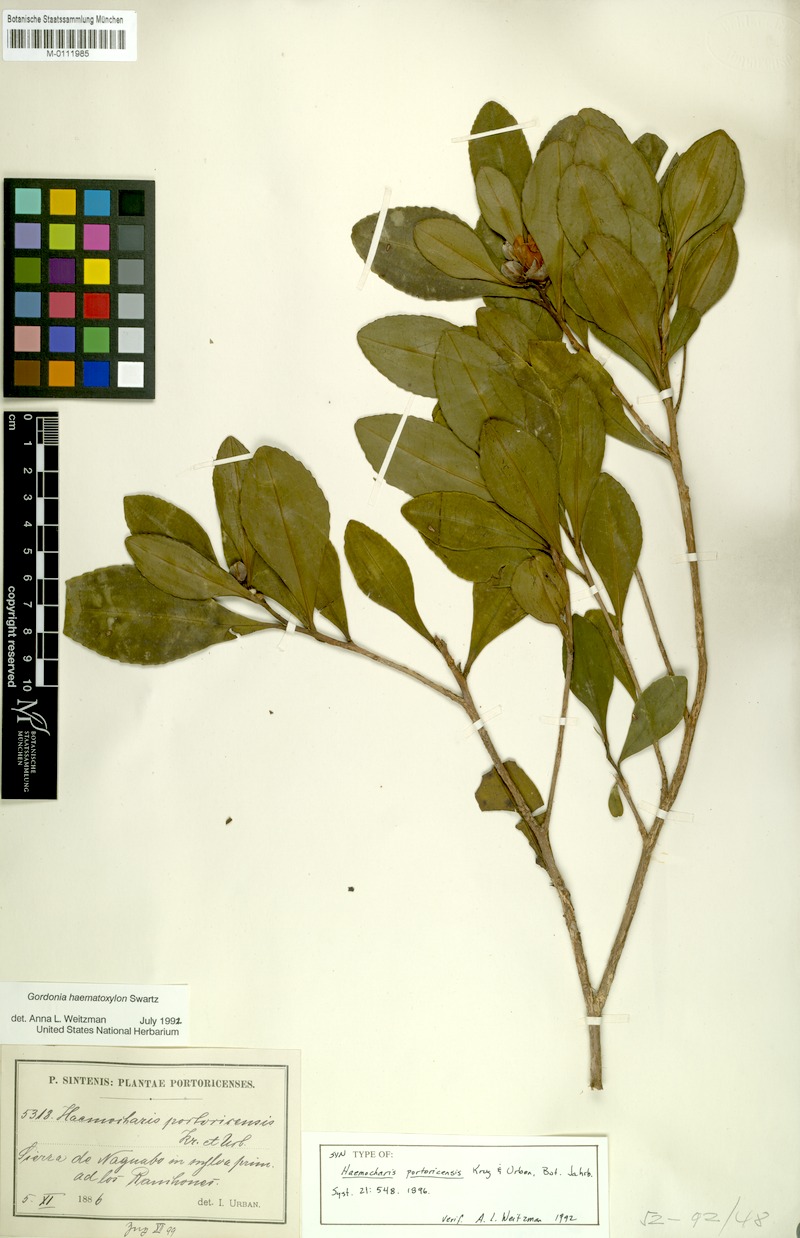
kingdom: Plantae
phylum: Tracheophyta
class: Magnoliopsida
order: Ericales
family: Theaceae
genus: Gordonia
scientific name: Gordonia portoricensis
